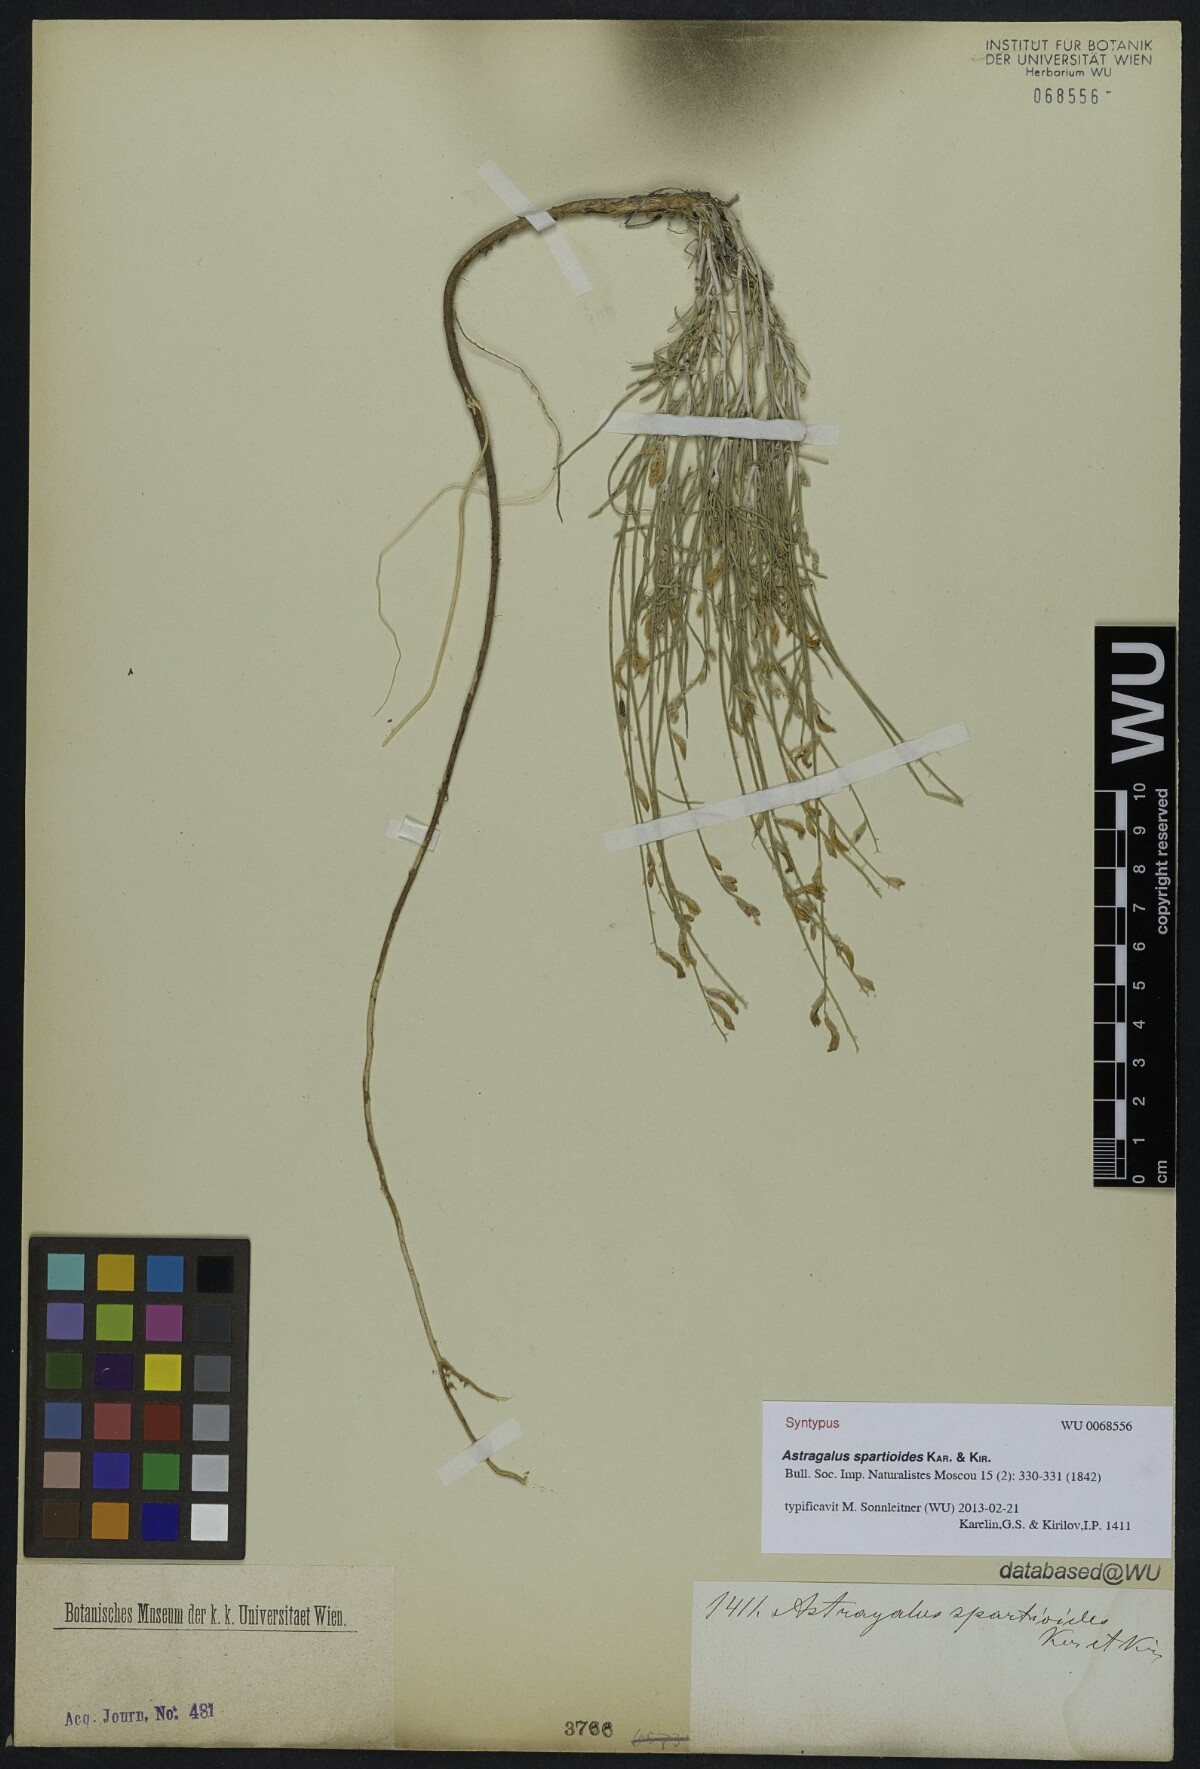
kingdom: Plantae
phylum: Tracheophyta
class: Magnoliopsida
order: Fabales
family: Fabaceae
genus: Astragalus
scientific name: Astragalus spartioides
